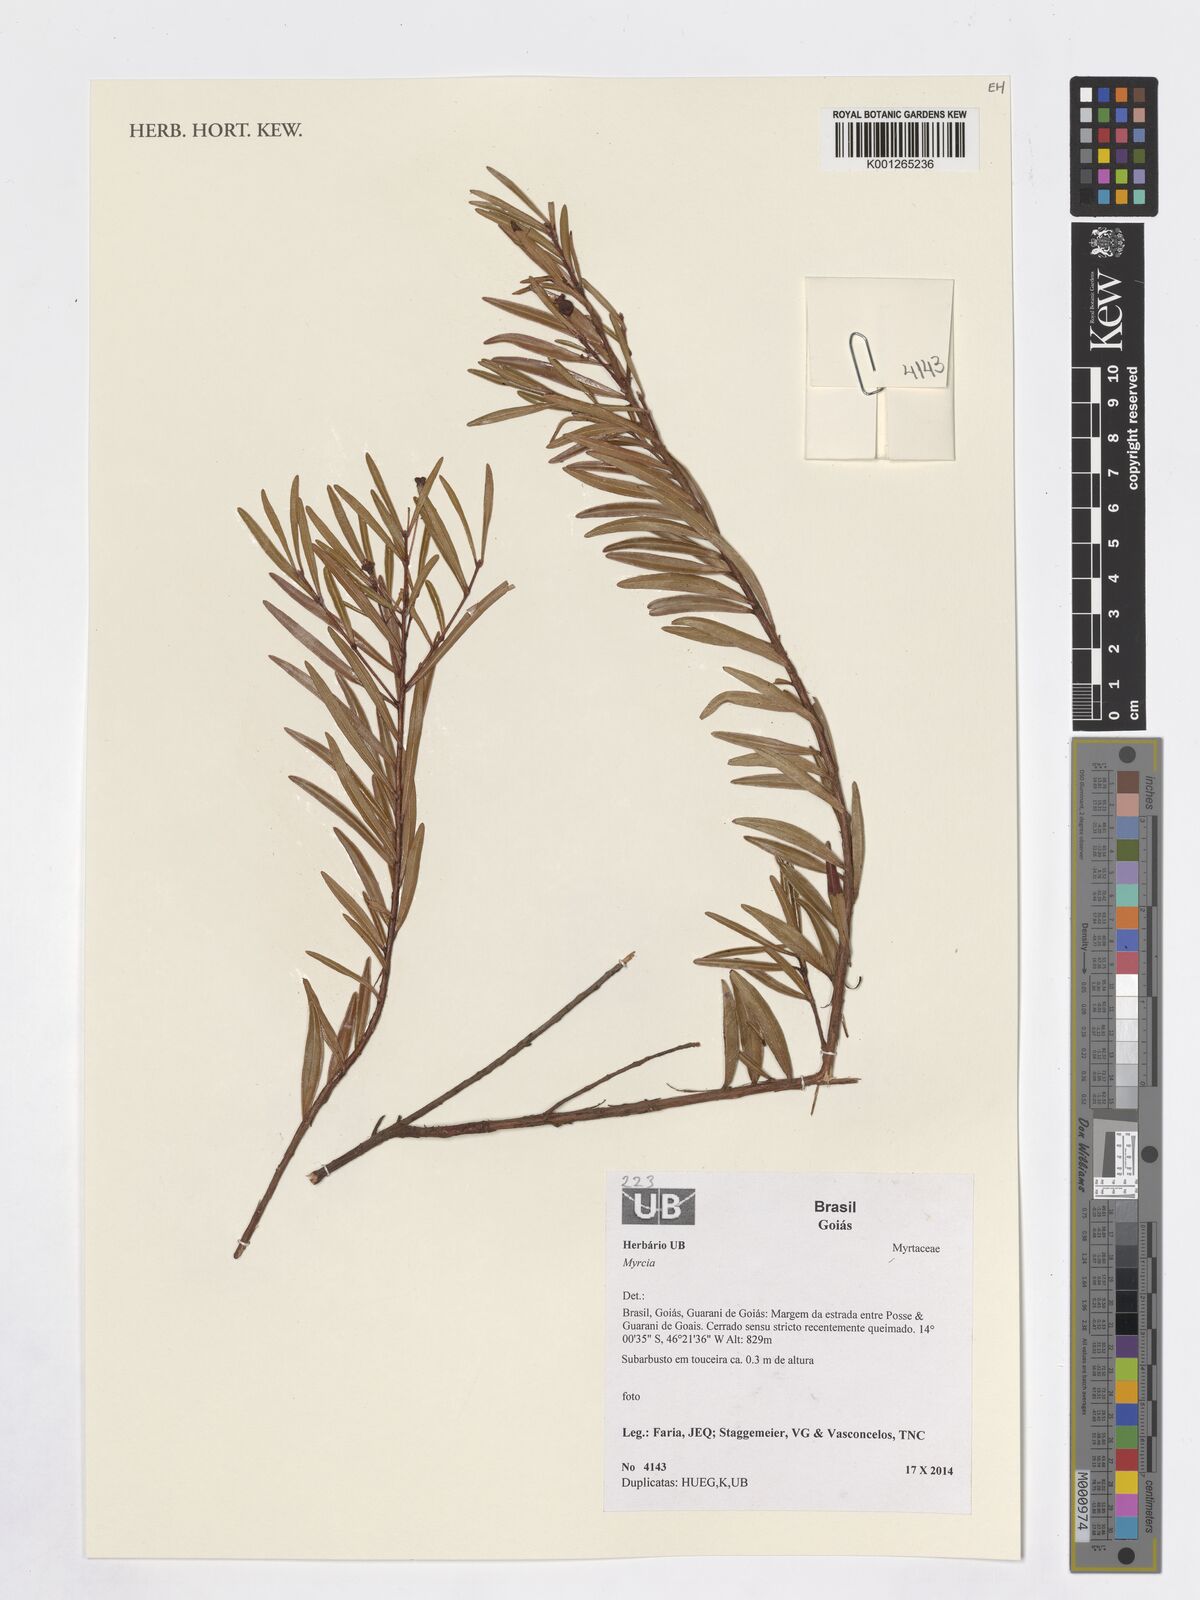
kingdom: Plantae
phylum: Tracheophyta
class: Magnoliopsida
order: Myrtales
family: Myrtaceae
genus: Myrcia
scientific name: Myrcia
